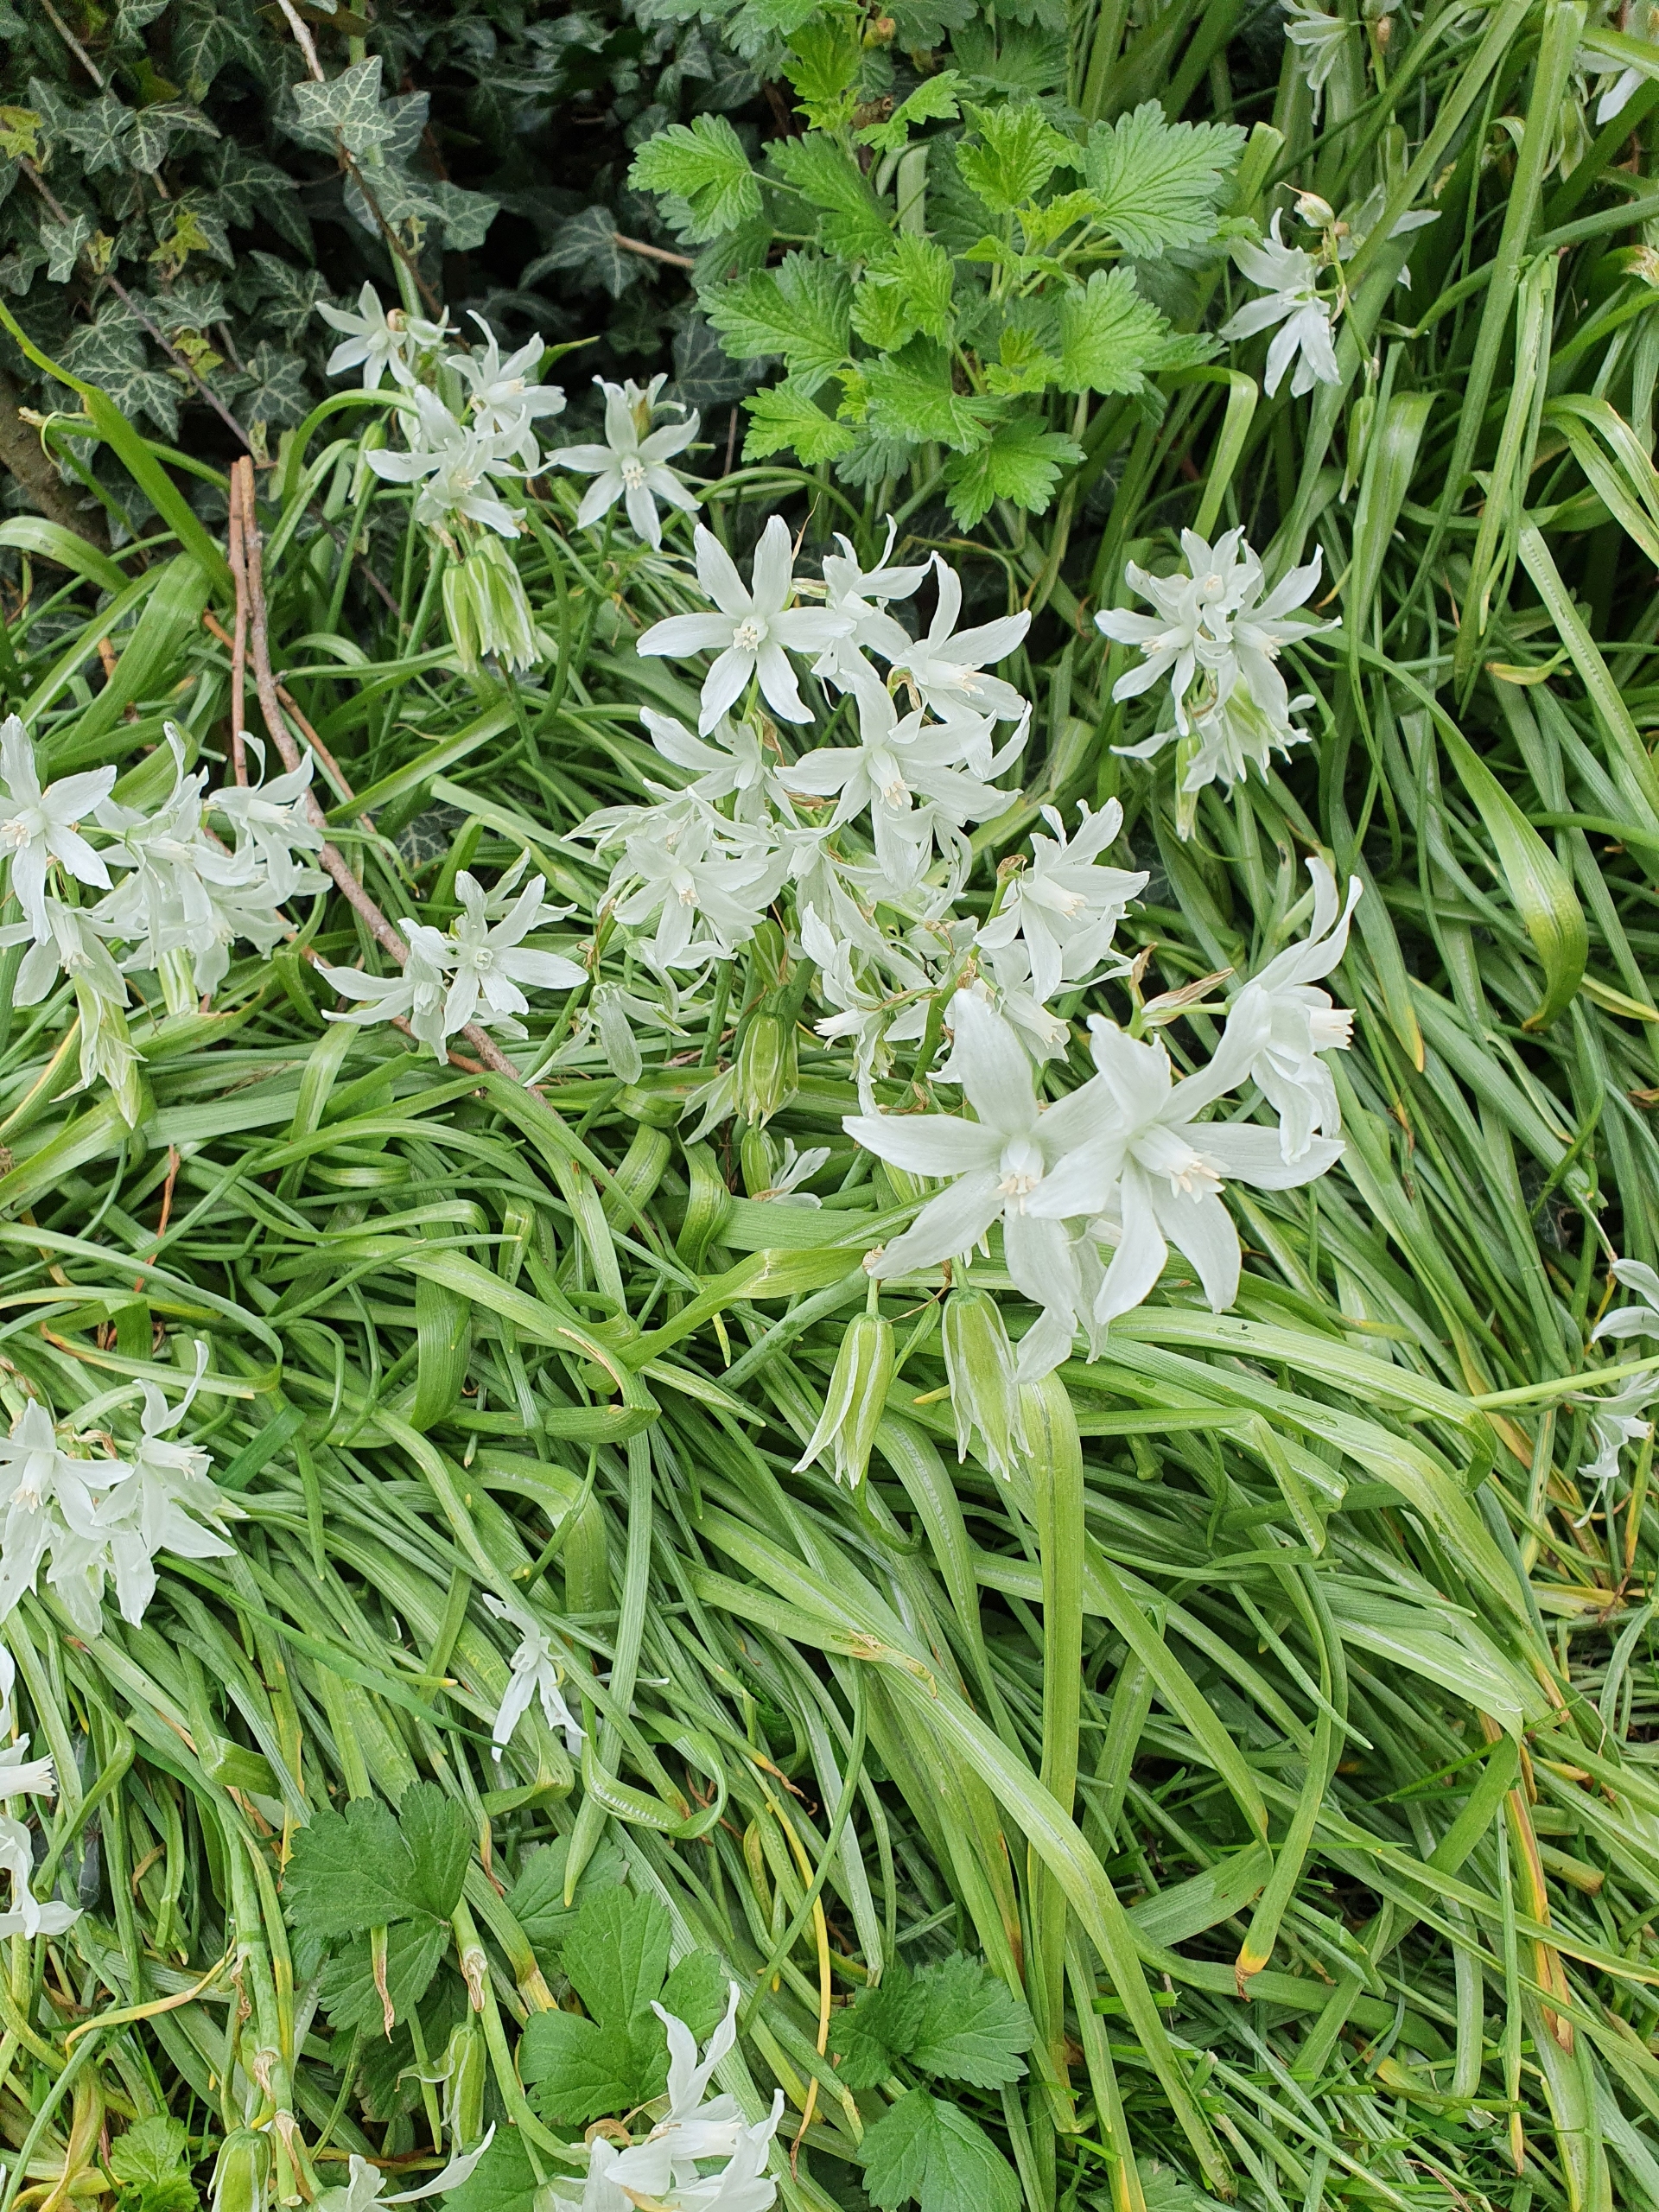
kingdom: Plantae
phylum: Tracheophyta
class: Liliopsida
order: Asparagales
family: Asparagaceae
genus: Ornithogalum
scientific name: Ornithogalum nutans
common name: Nikkende fuglemælk
